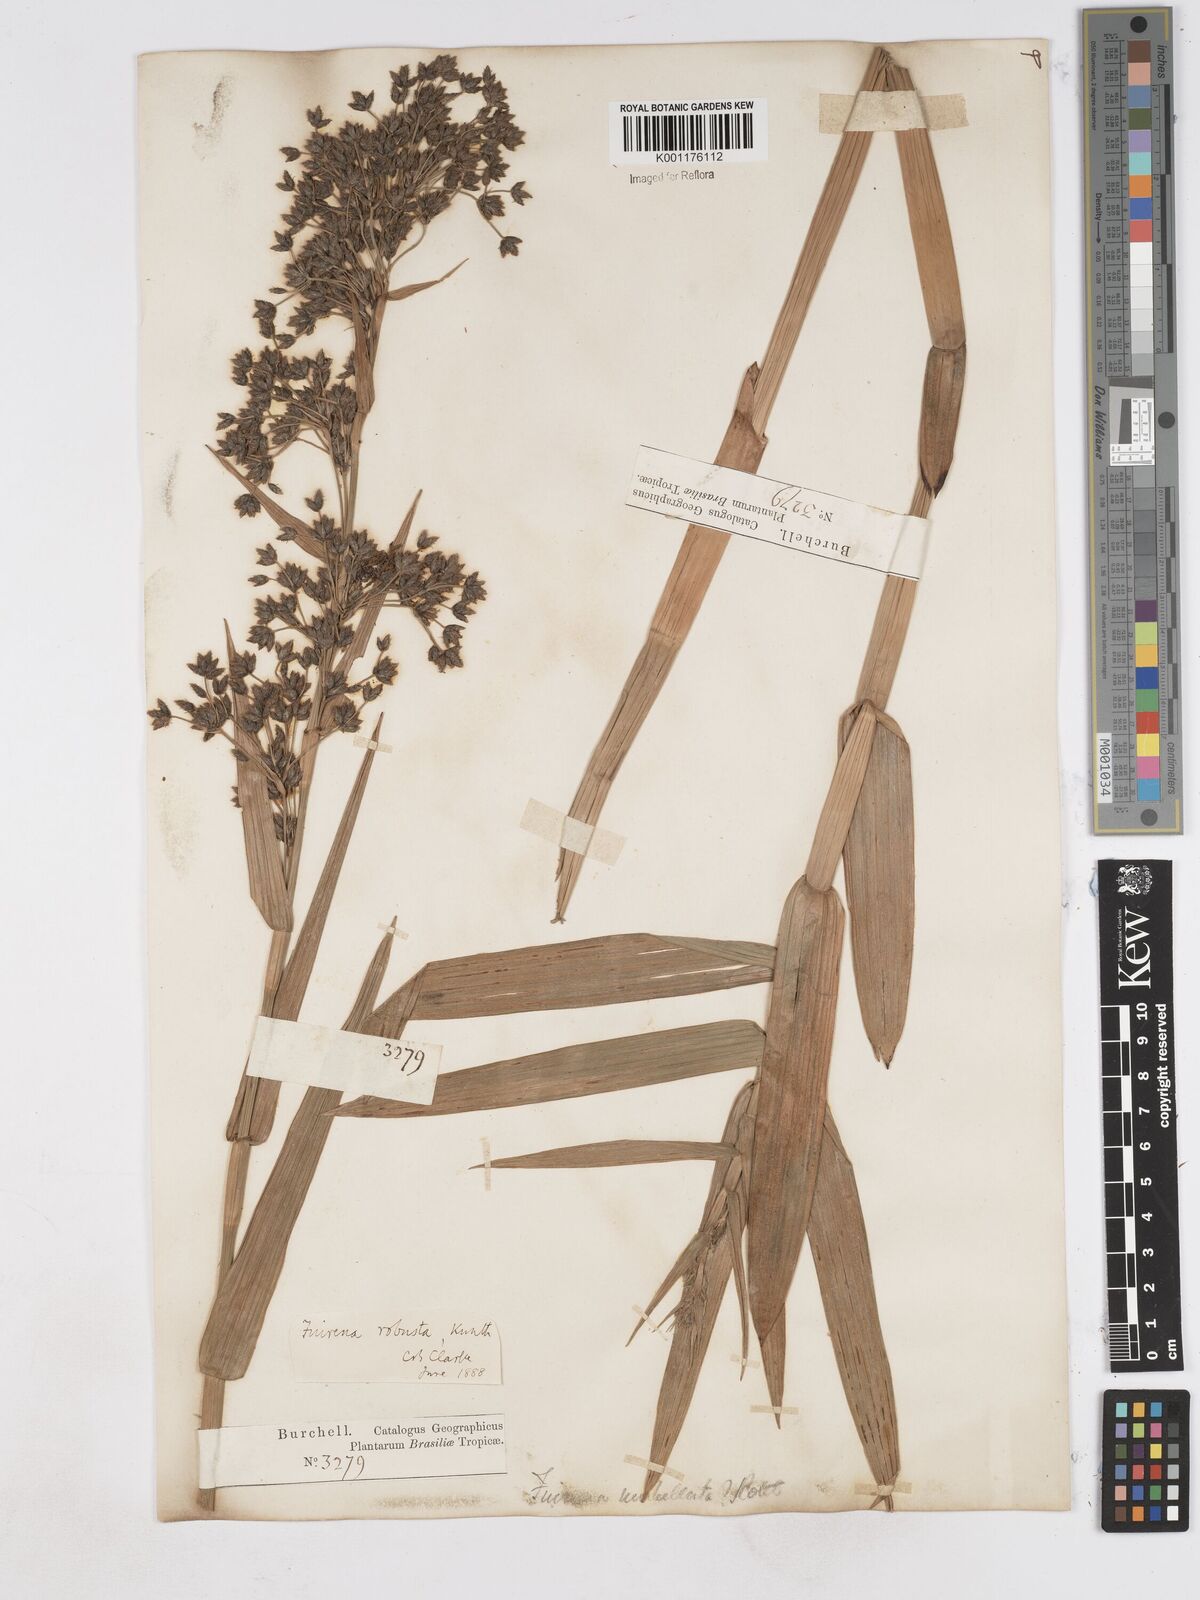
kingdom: Plantae
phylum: Tracheophyta
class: Liliopsida
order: Poales
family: Cyperaceae
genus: Fuirena
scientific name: Fuirena robusta
